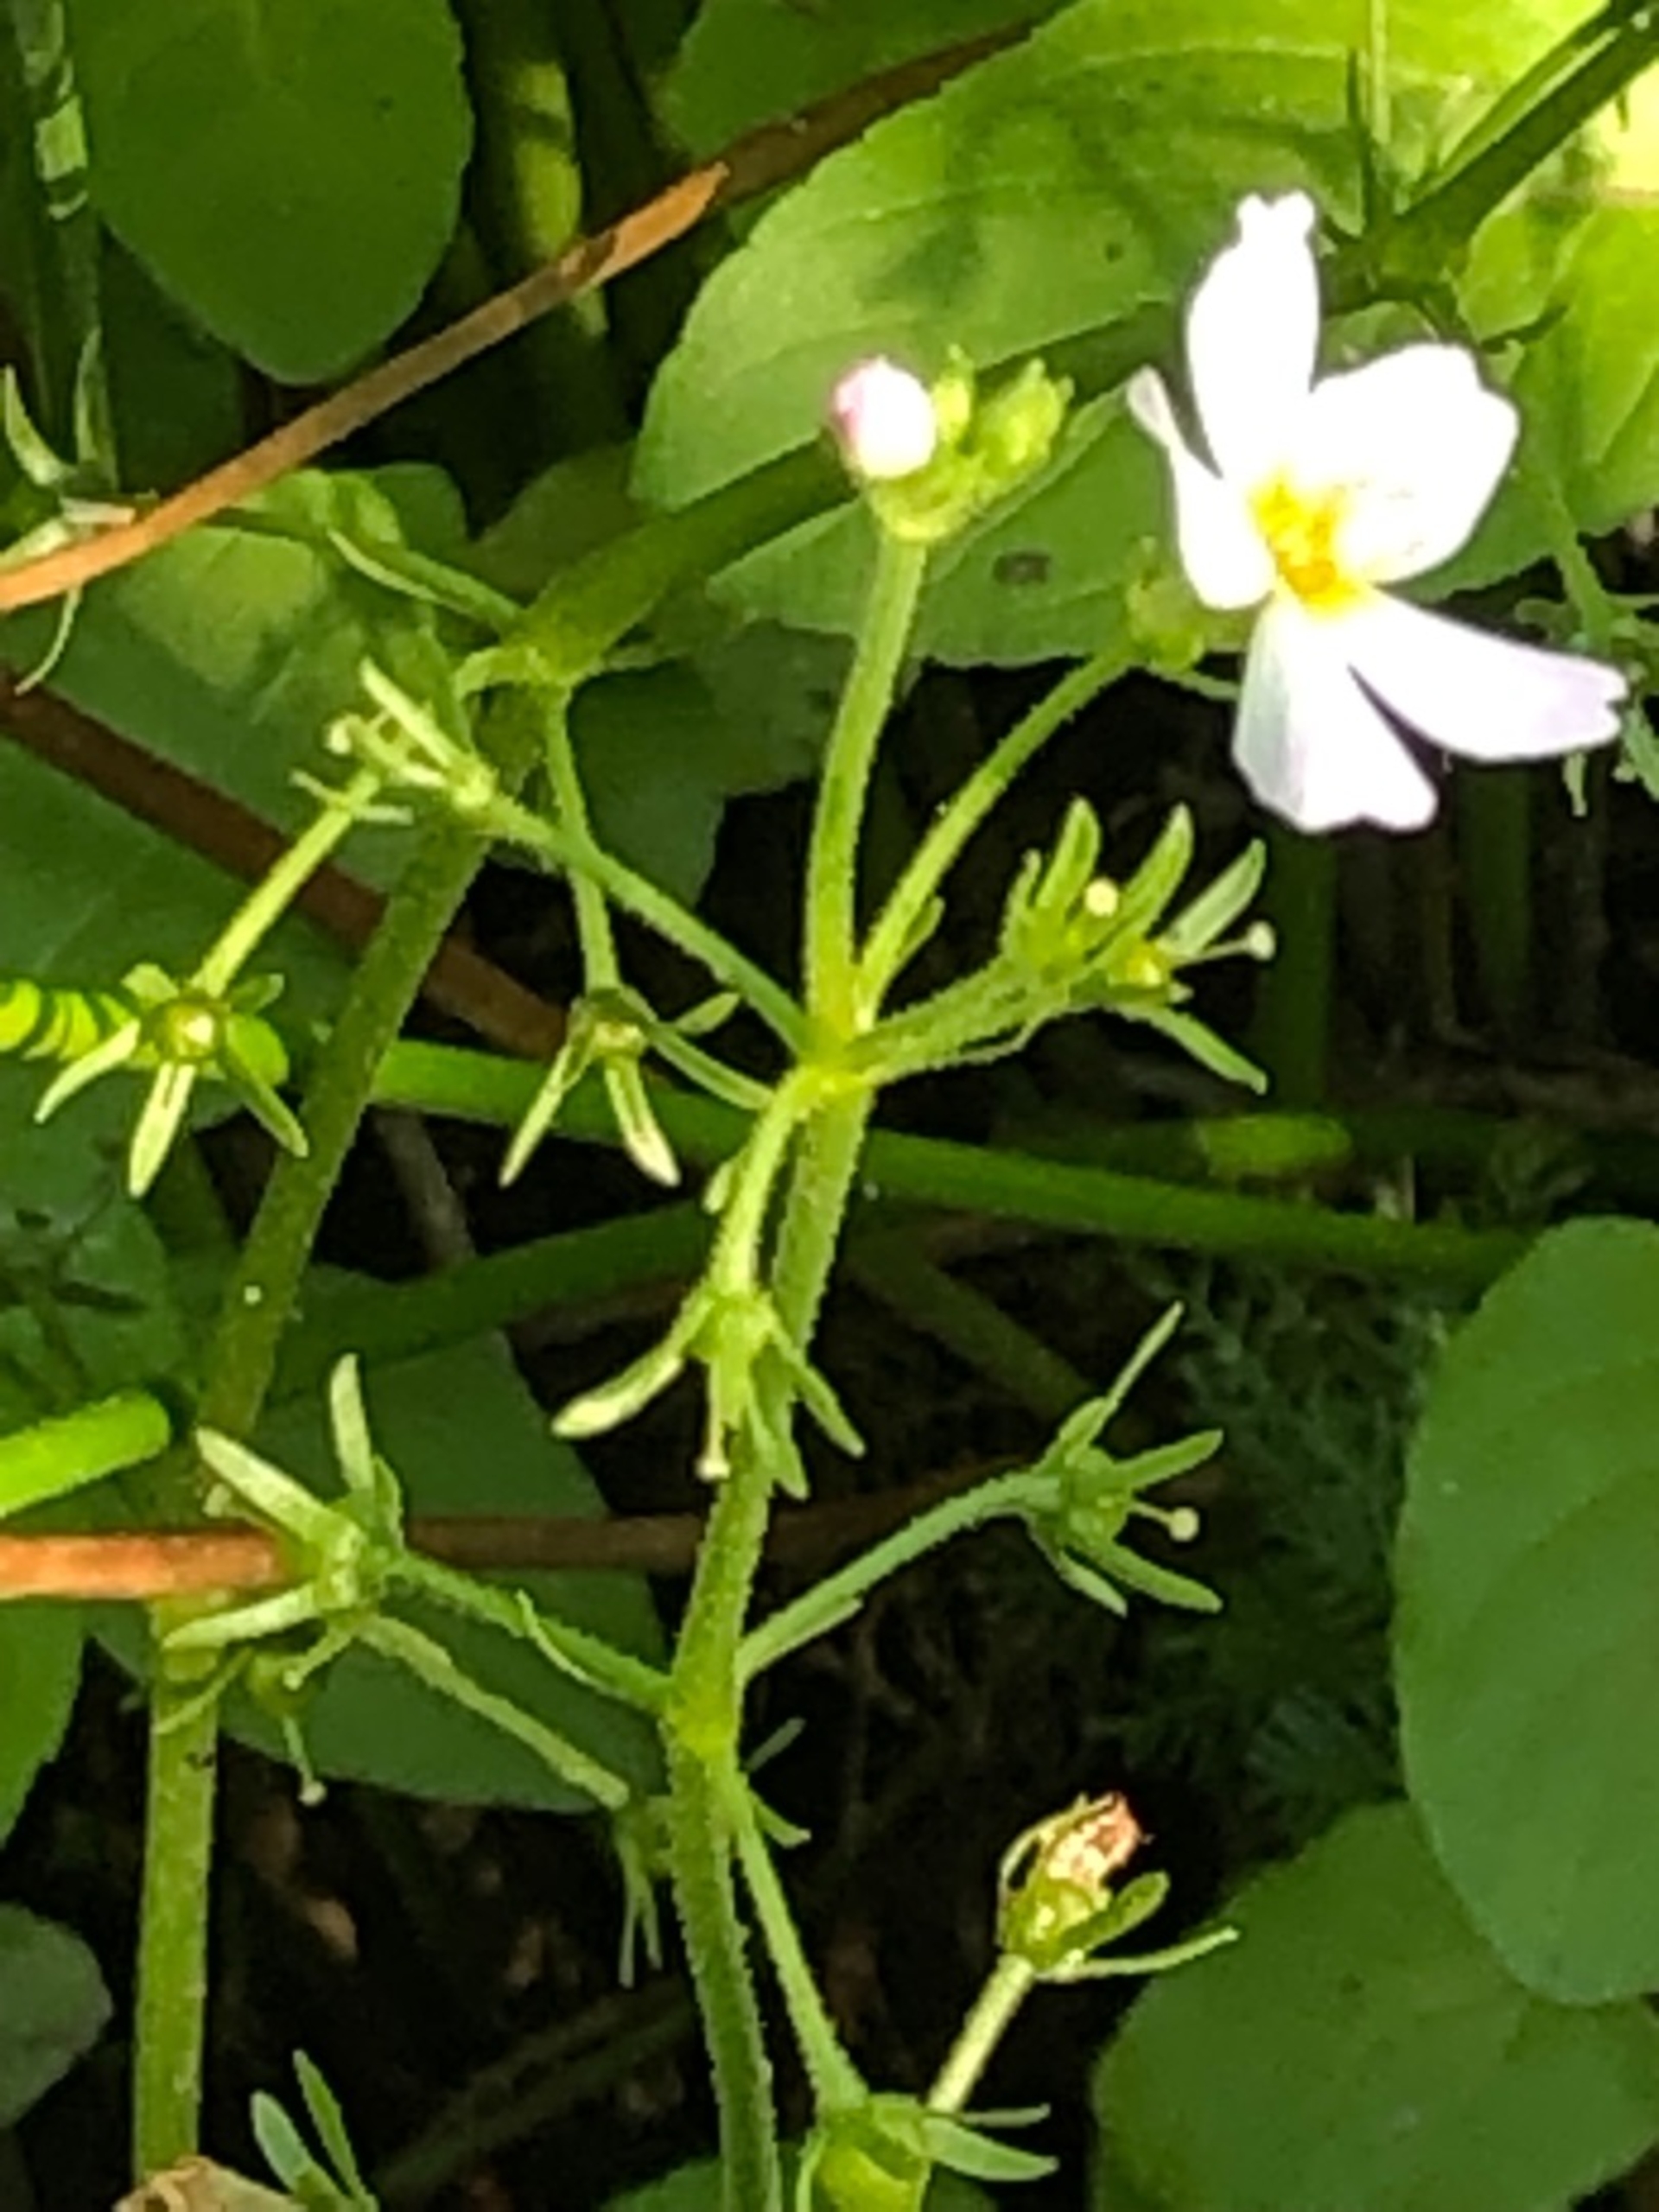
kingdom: Plantae
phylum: Tracheophyta
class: Magnoliopsida
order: Ericales
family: Primulaceae
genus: Hottonia
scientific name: Hottonia palustris
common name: Vandrøllike
